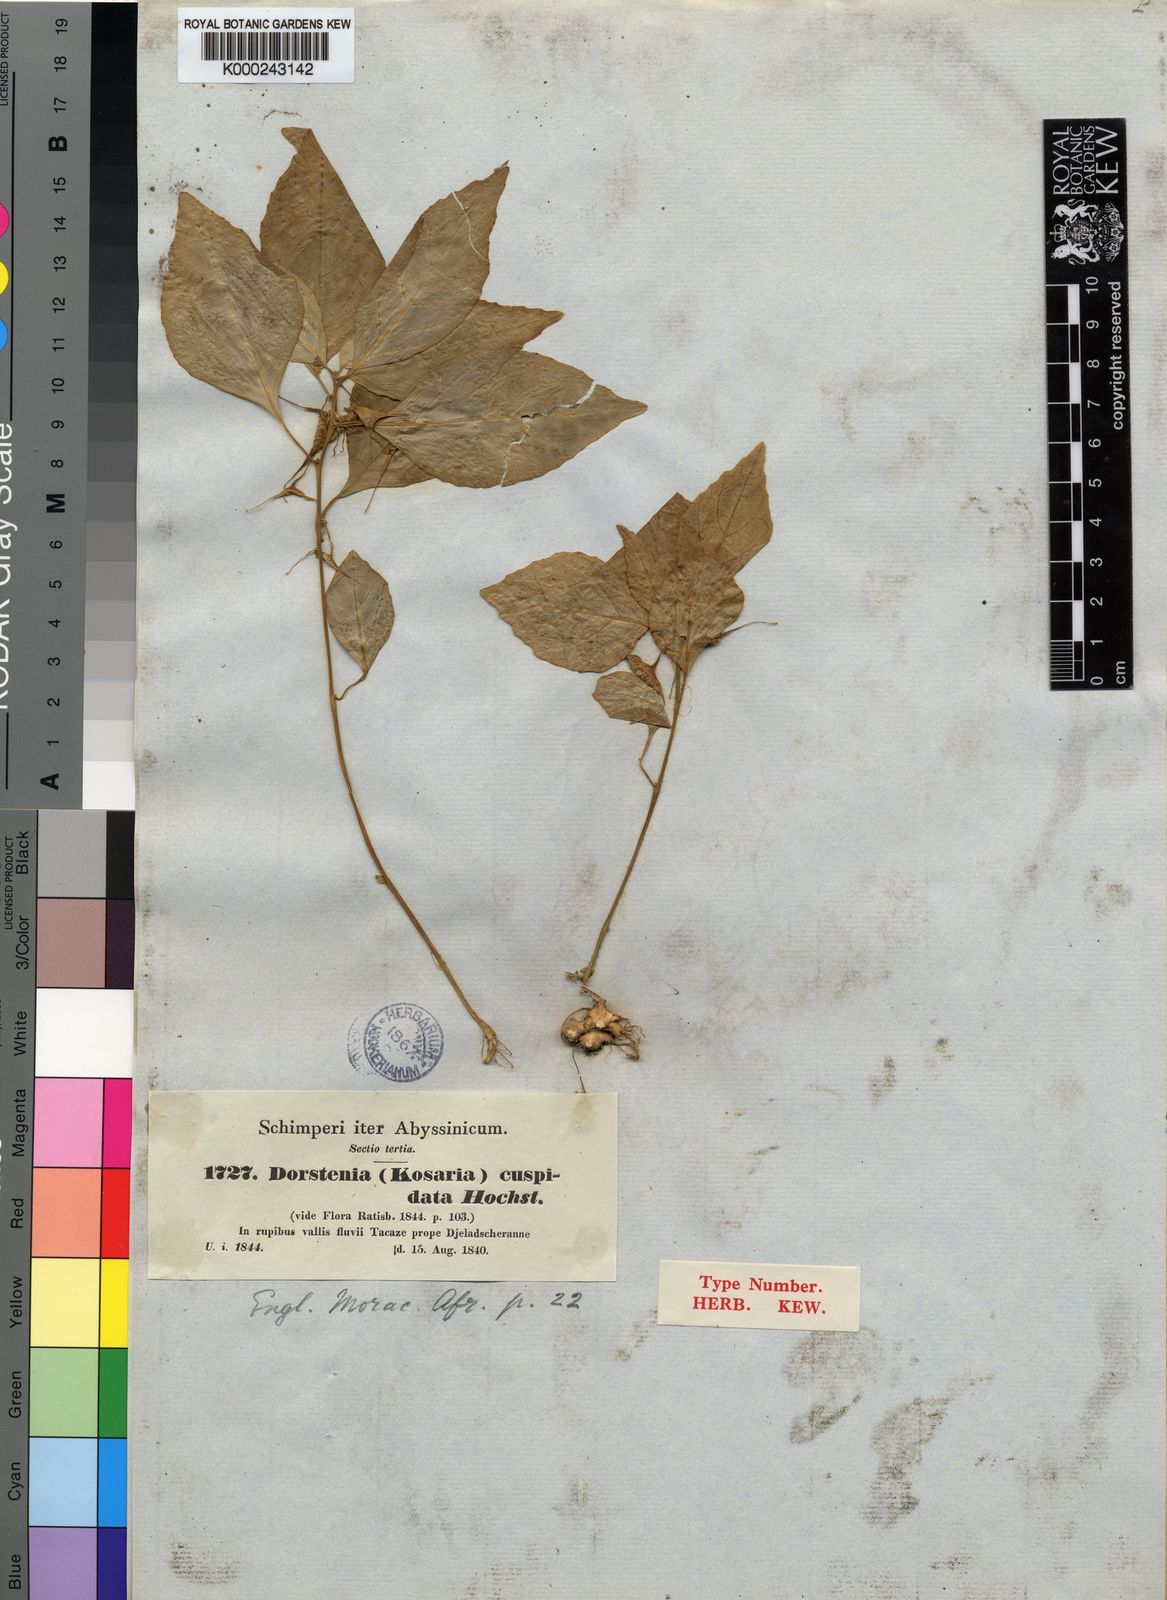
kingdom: Plantae
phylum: Tracheophyta
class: Magnoliopsida
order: Rosales
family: Moraceae
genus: Dorstenia
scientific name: Dorstenia cuspidata
